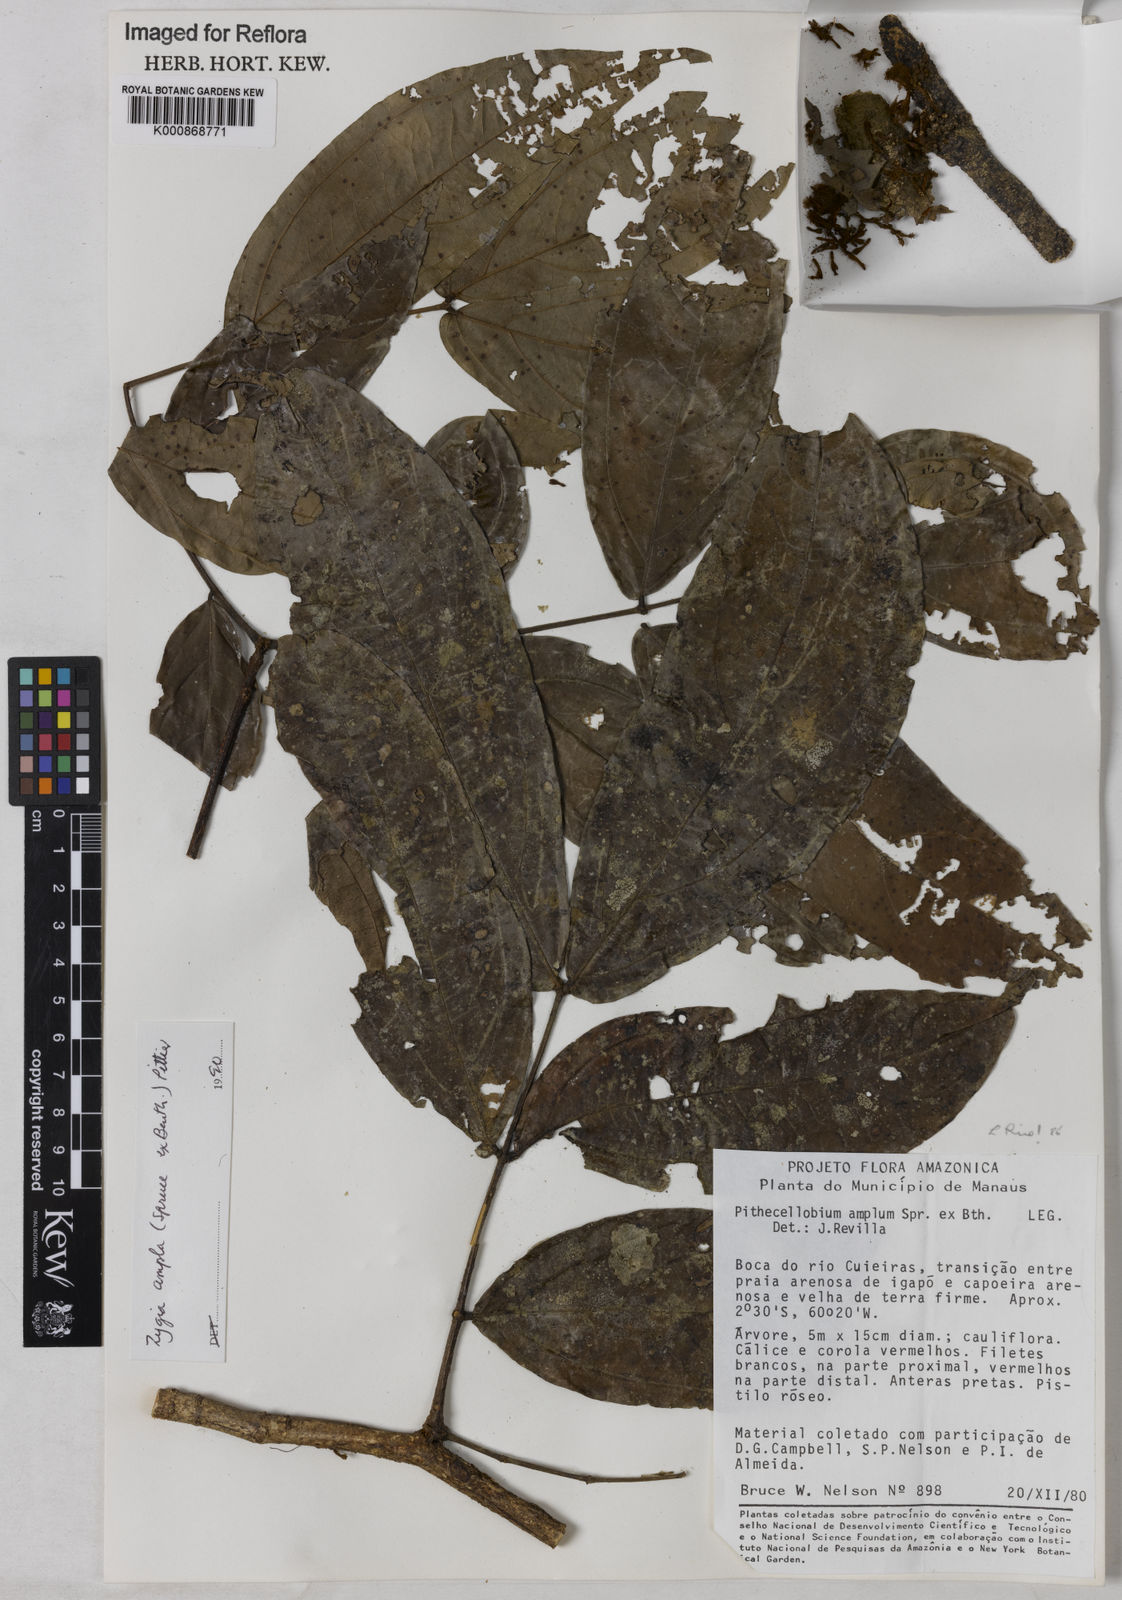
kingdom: Plantae
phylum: Tracheophyta
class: Magnoliopsida
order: Fabales
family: Fabaceae
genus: Zygia
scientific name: Zygia ampla
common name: Jarendeua de sapo
